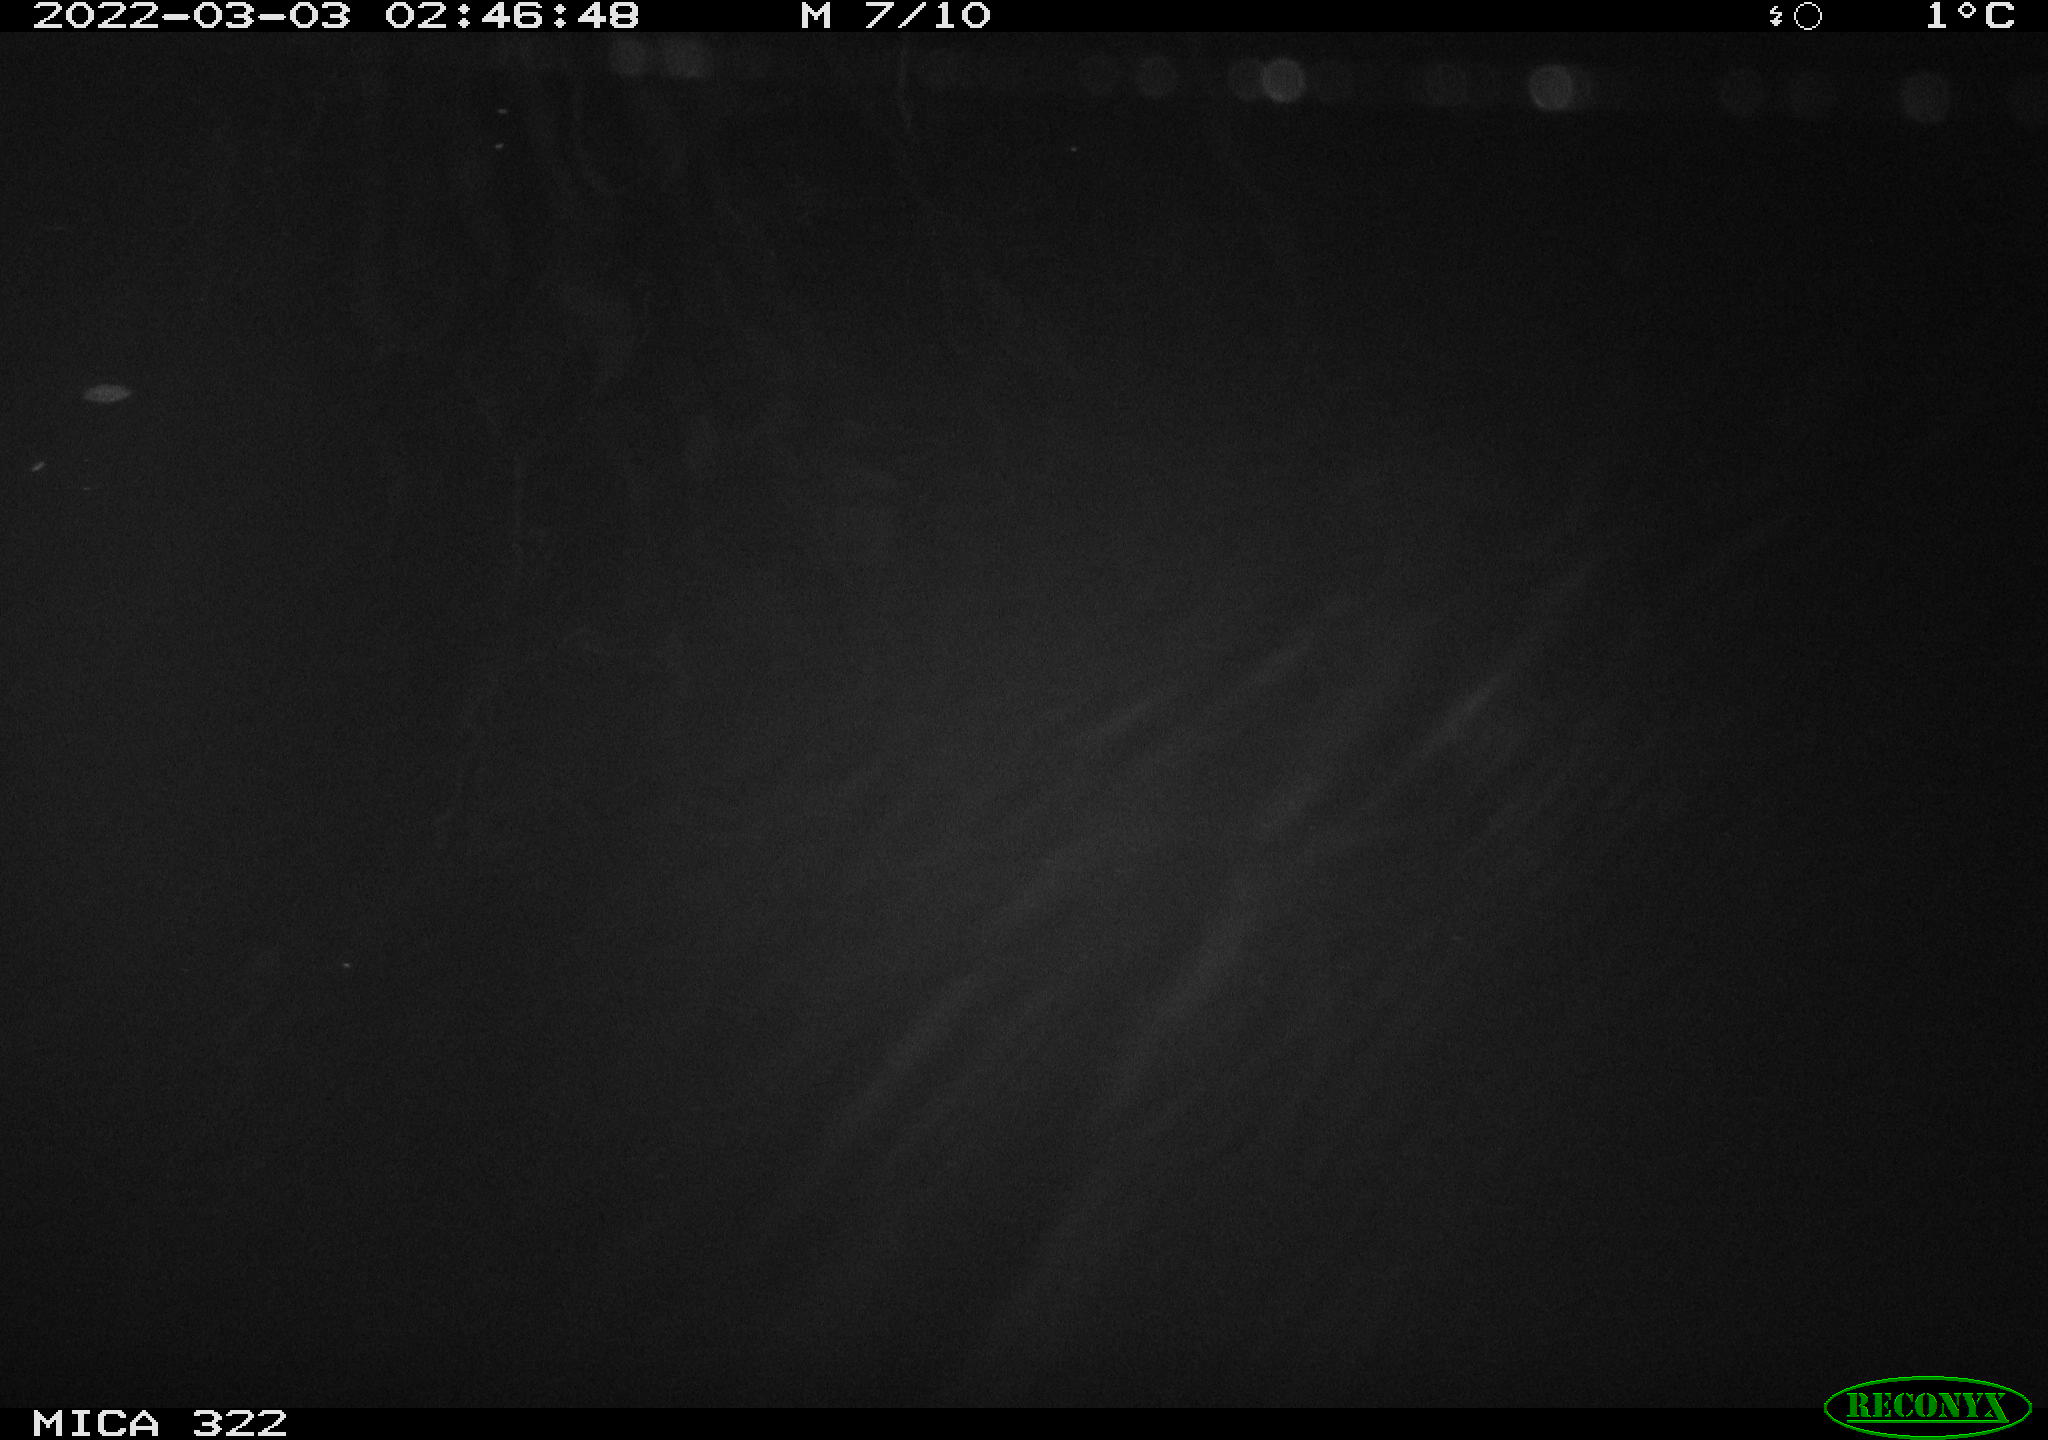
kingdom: Animalia
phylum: Chordata
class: Aves
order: Anseriformes
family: Anatidae
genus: Anas
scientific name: Anas platyrhynchos
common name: Mallard
